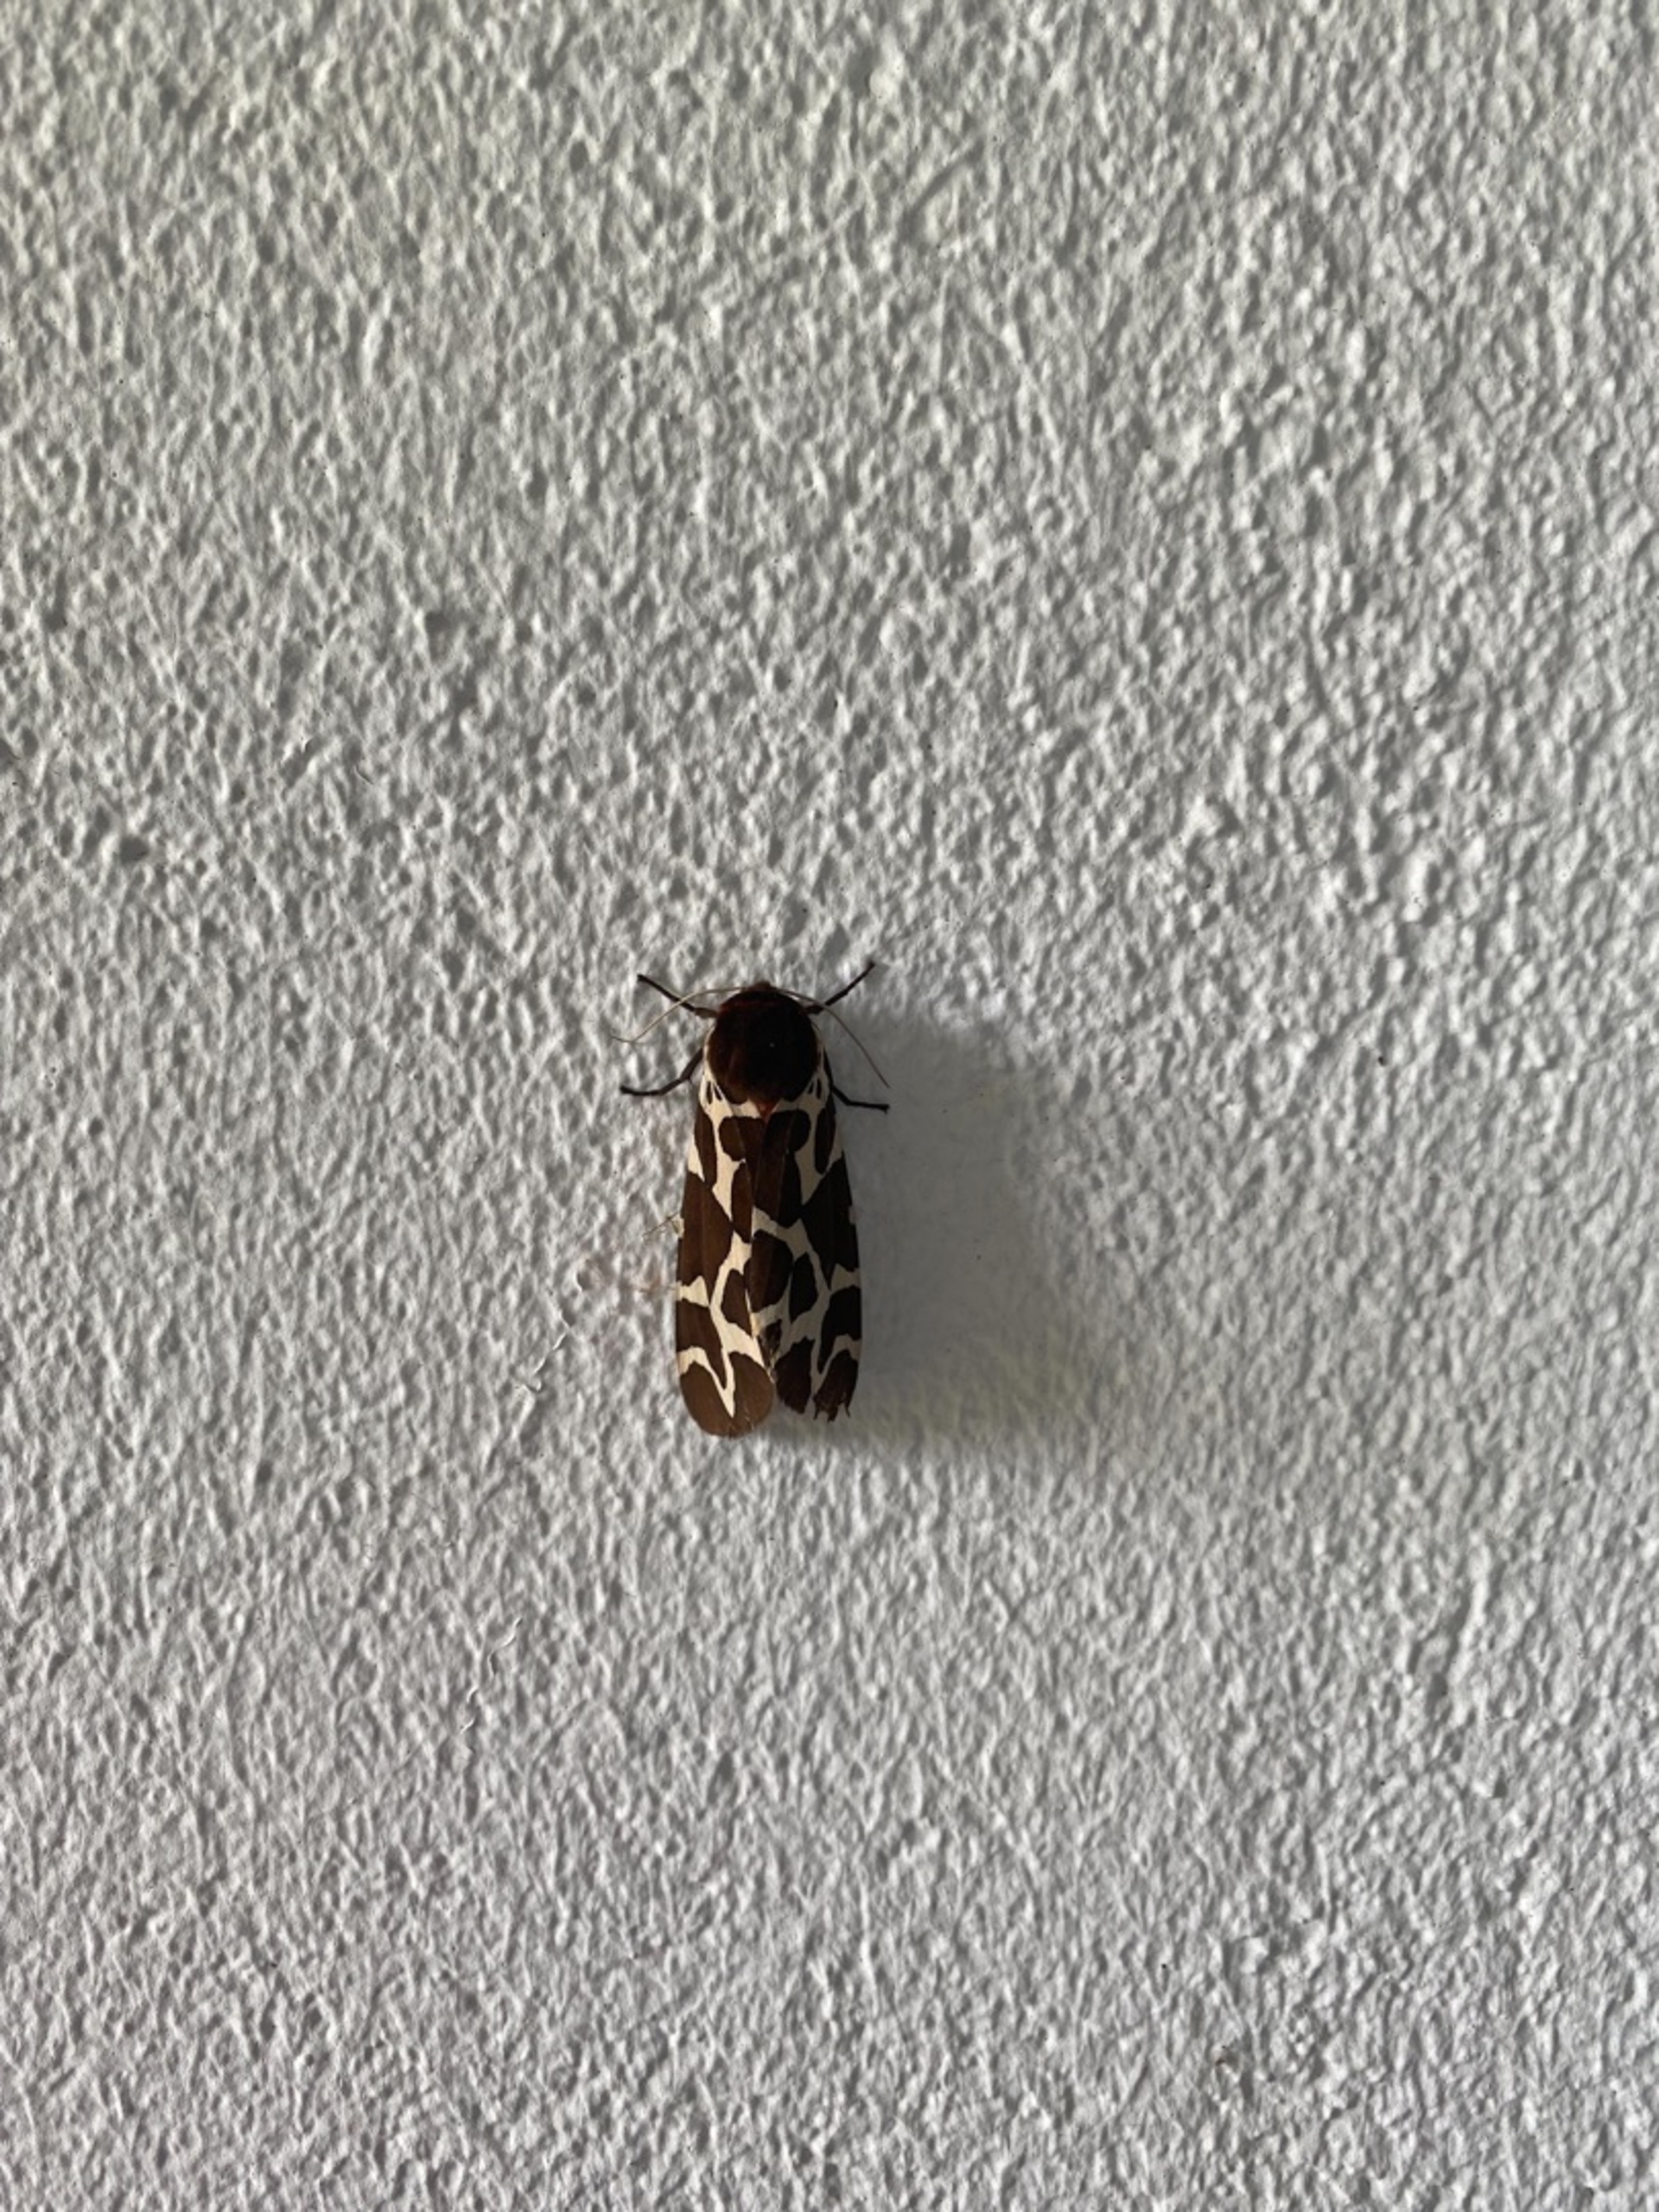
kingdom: Animalia
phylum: Arthropoda
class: Insecta
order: Lepidoptera
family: Erebidae
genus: Arctia
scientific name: Arctia caja
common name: Brun bjørn
